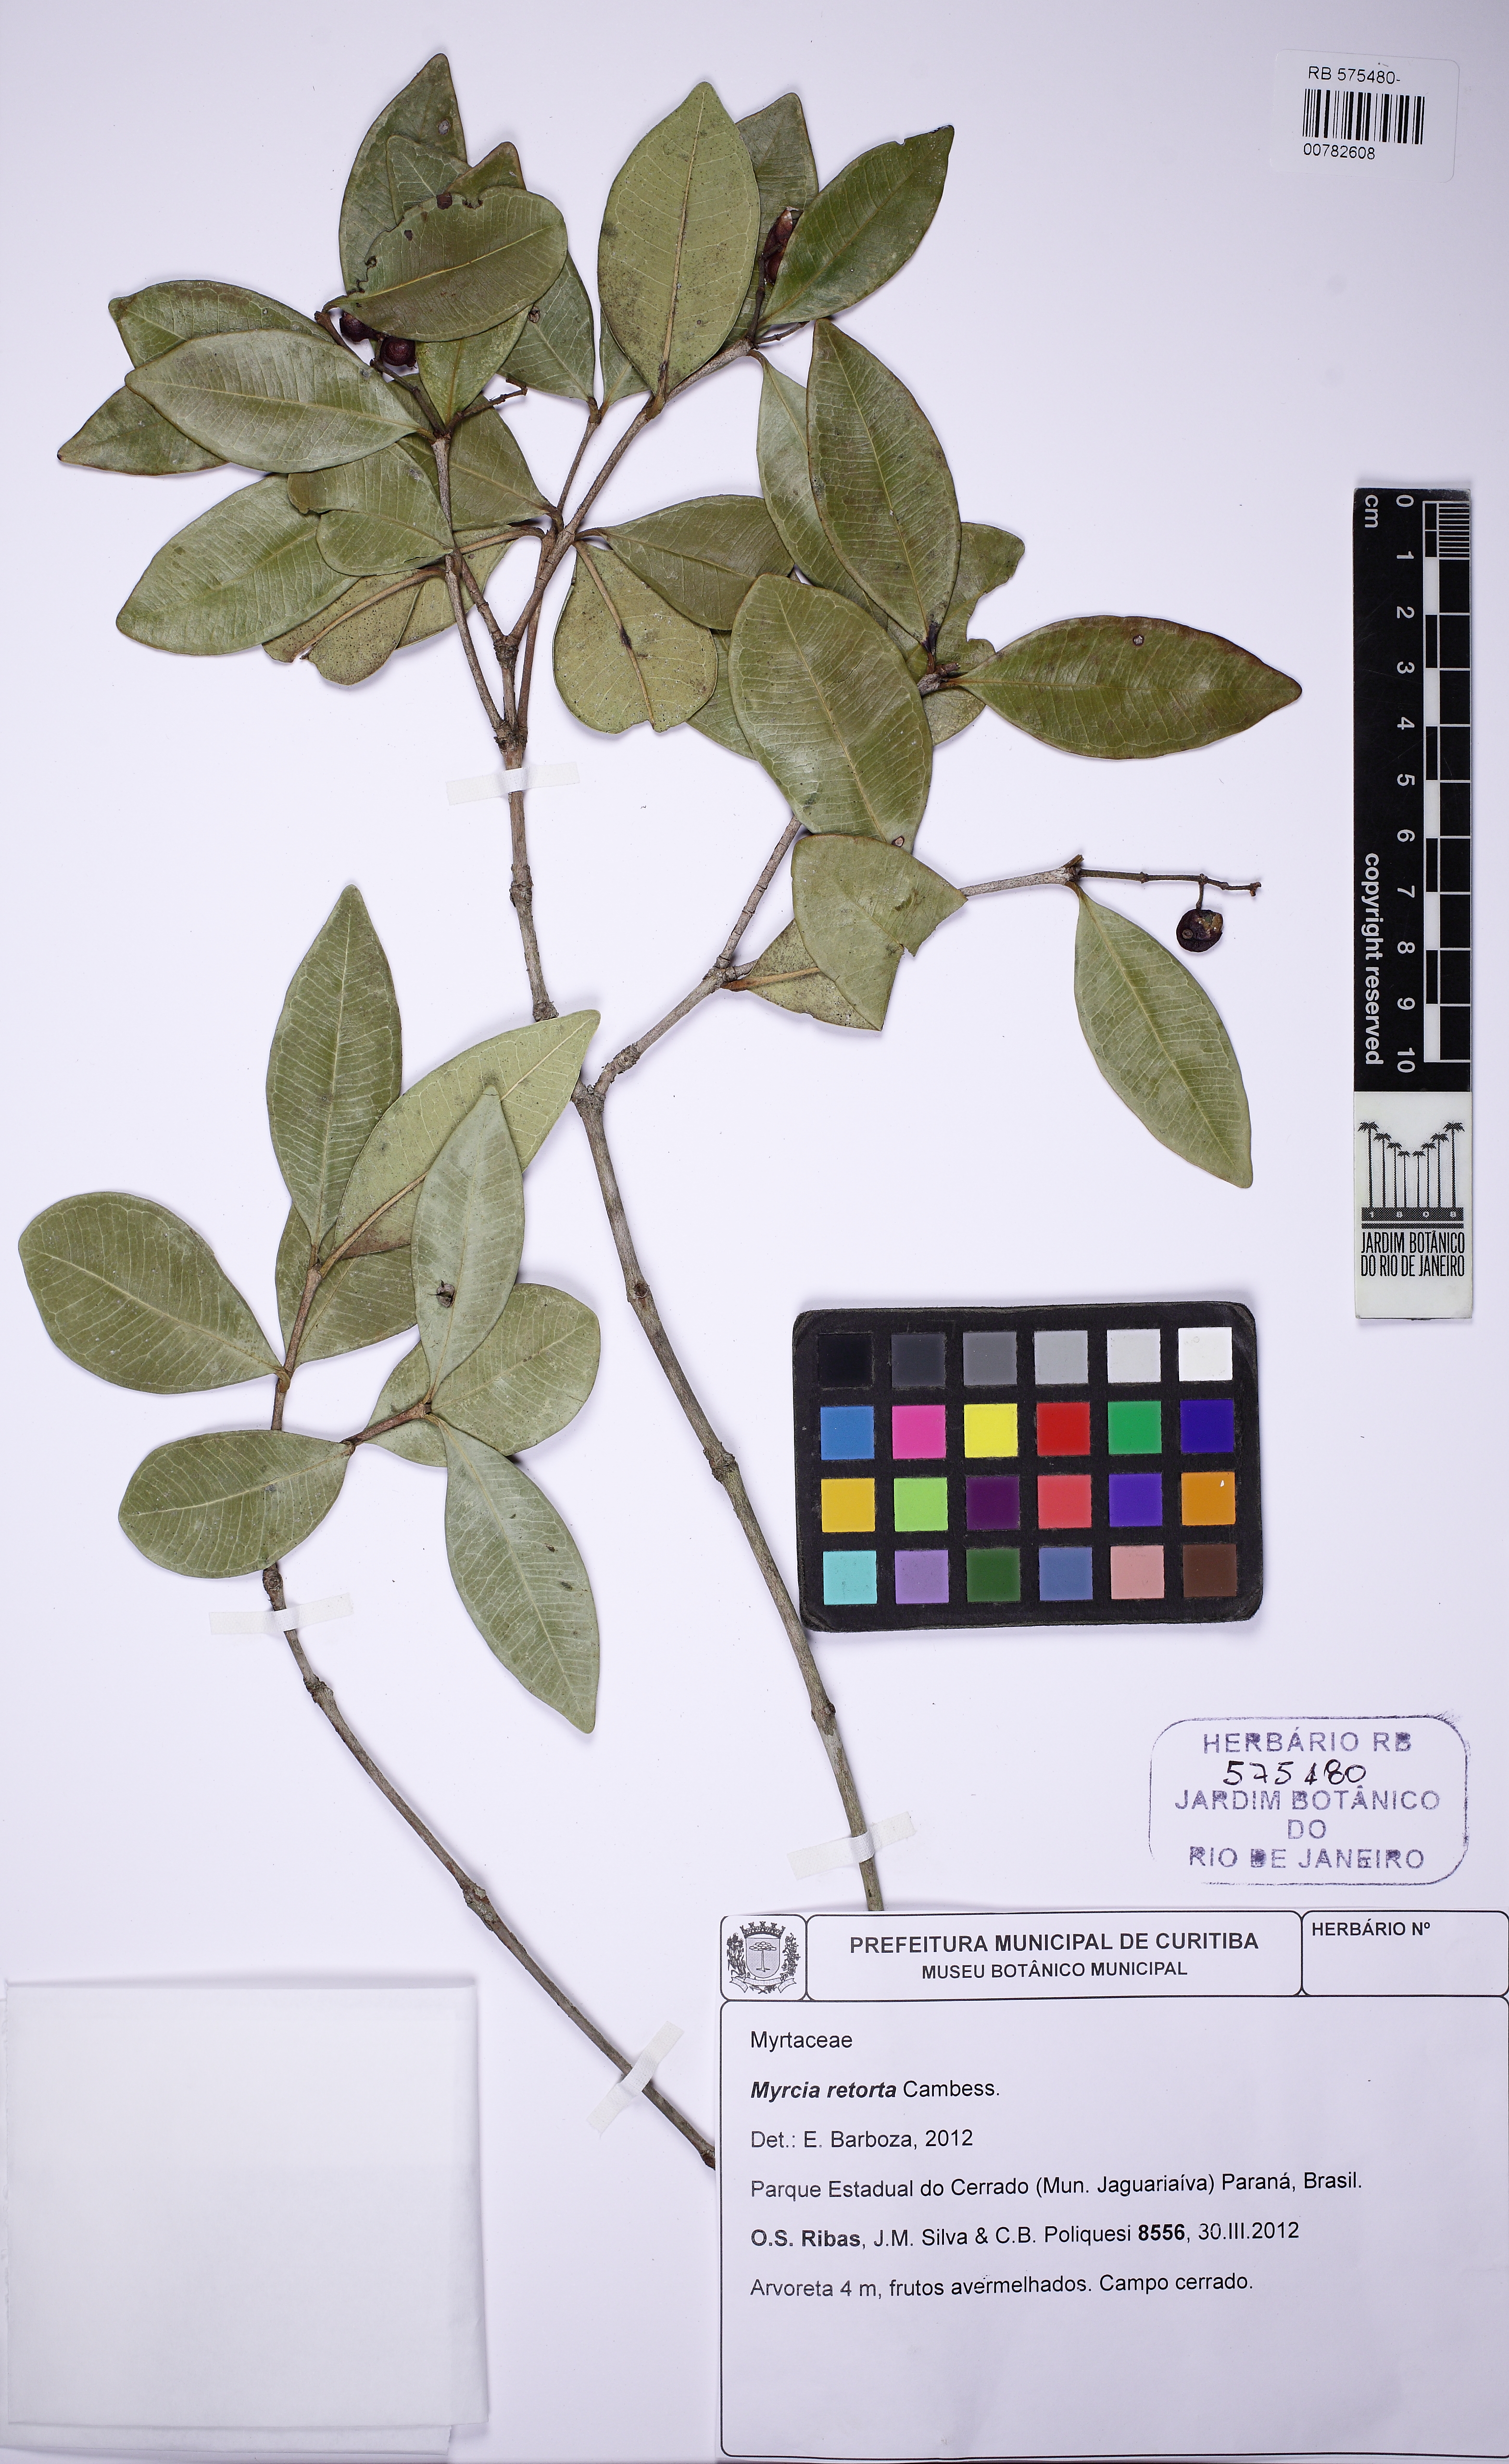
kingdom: Plantae
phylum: Tracheophyta
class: Magnoliopsida
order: Myrtales
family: Myrtaceae
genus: Myrcia
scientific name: Myrcia retorta
